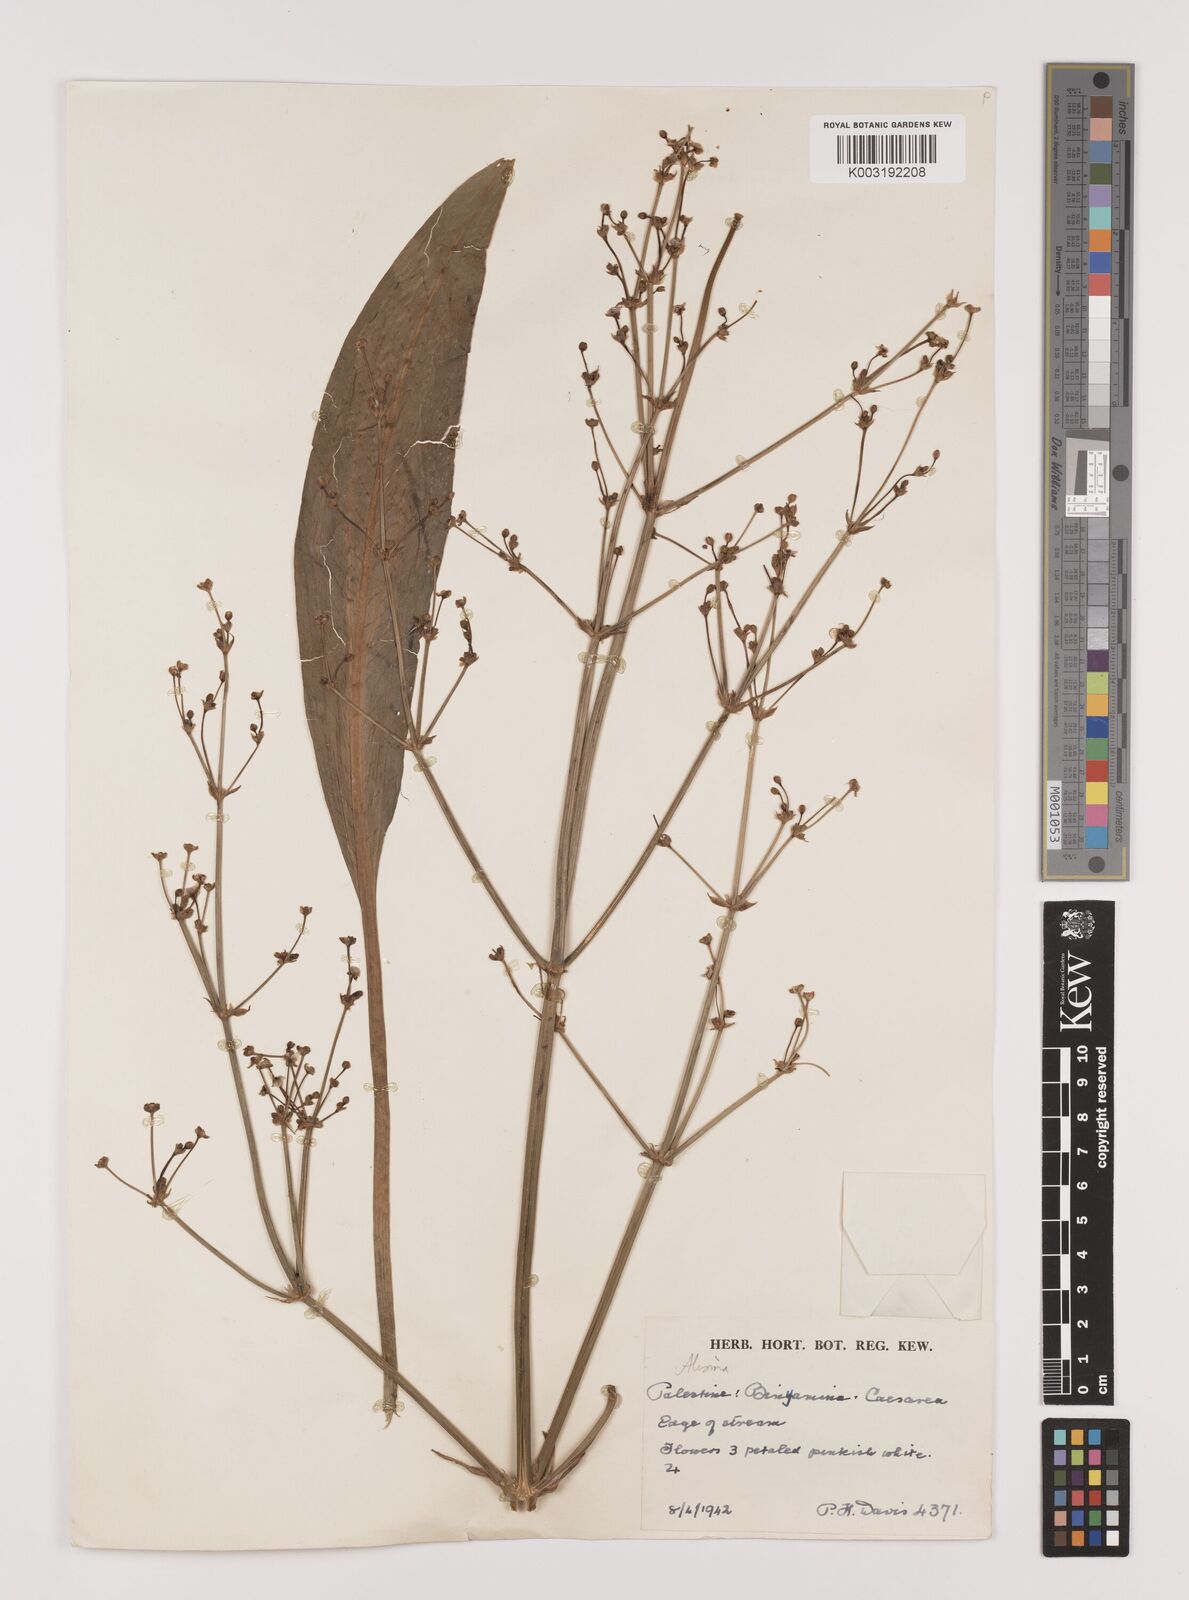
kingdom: Plantae
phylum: Tracheophyta
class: Liliopsida
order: Alismatales
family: Alismataceae
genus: Alisma
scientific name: Alisma lanceolatum
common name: Narrow-leaved water-plantain
